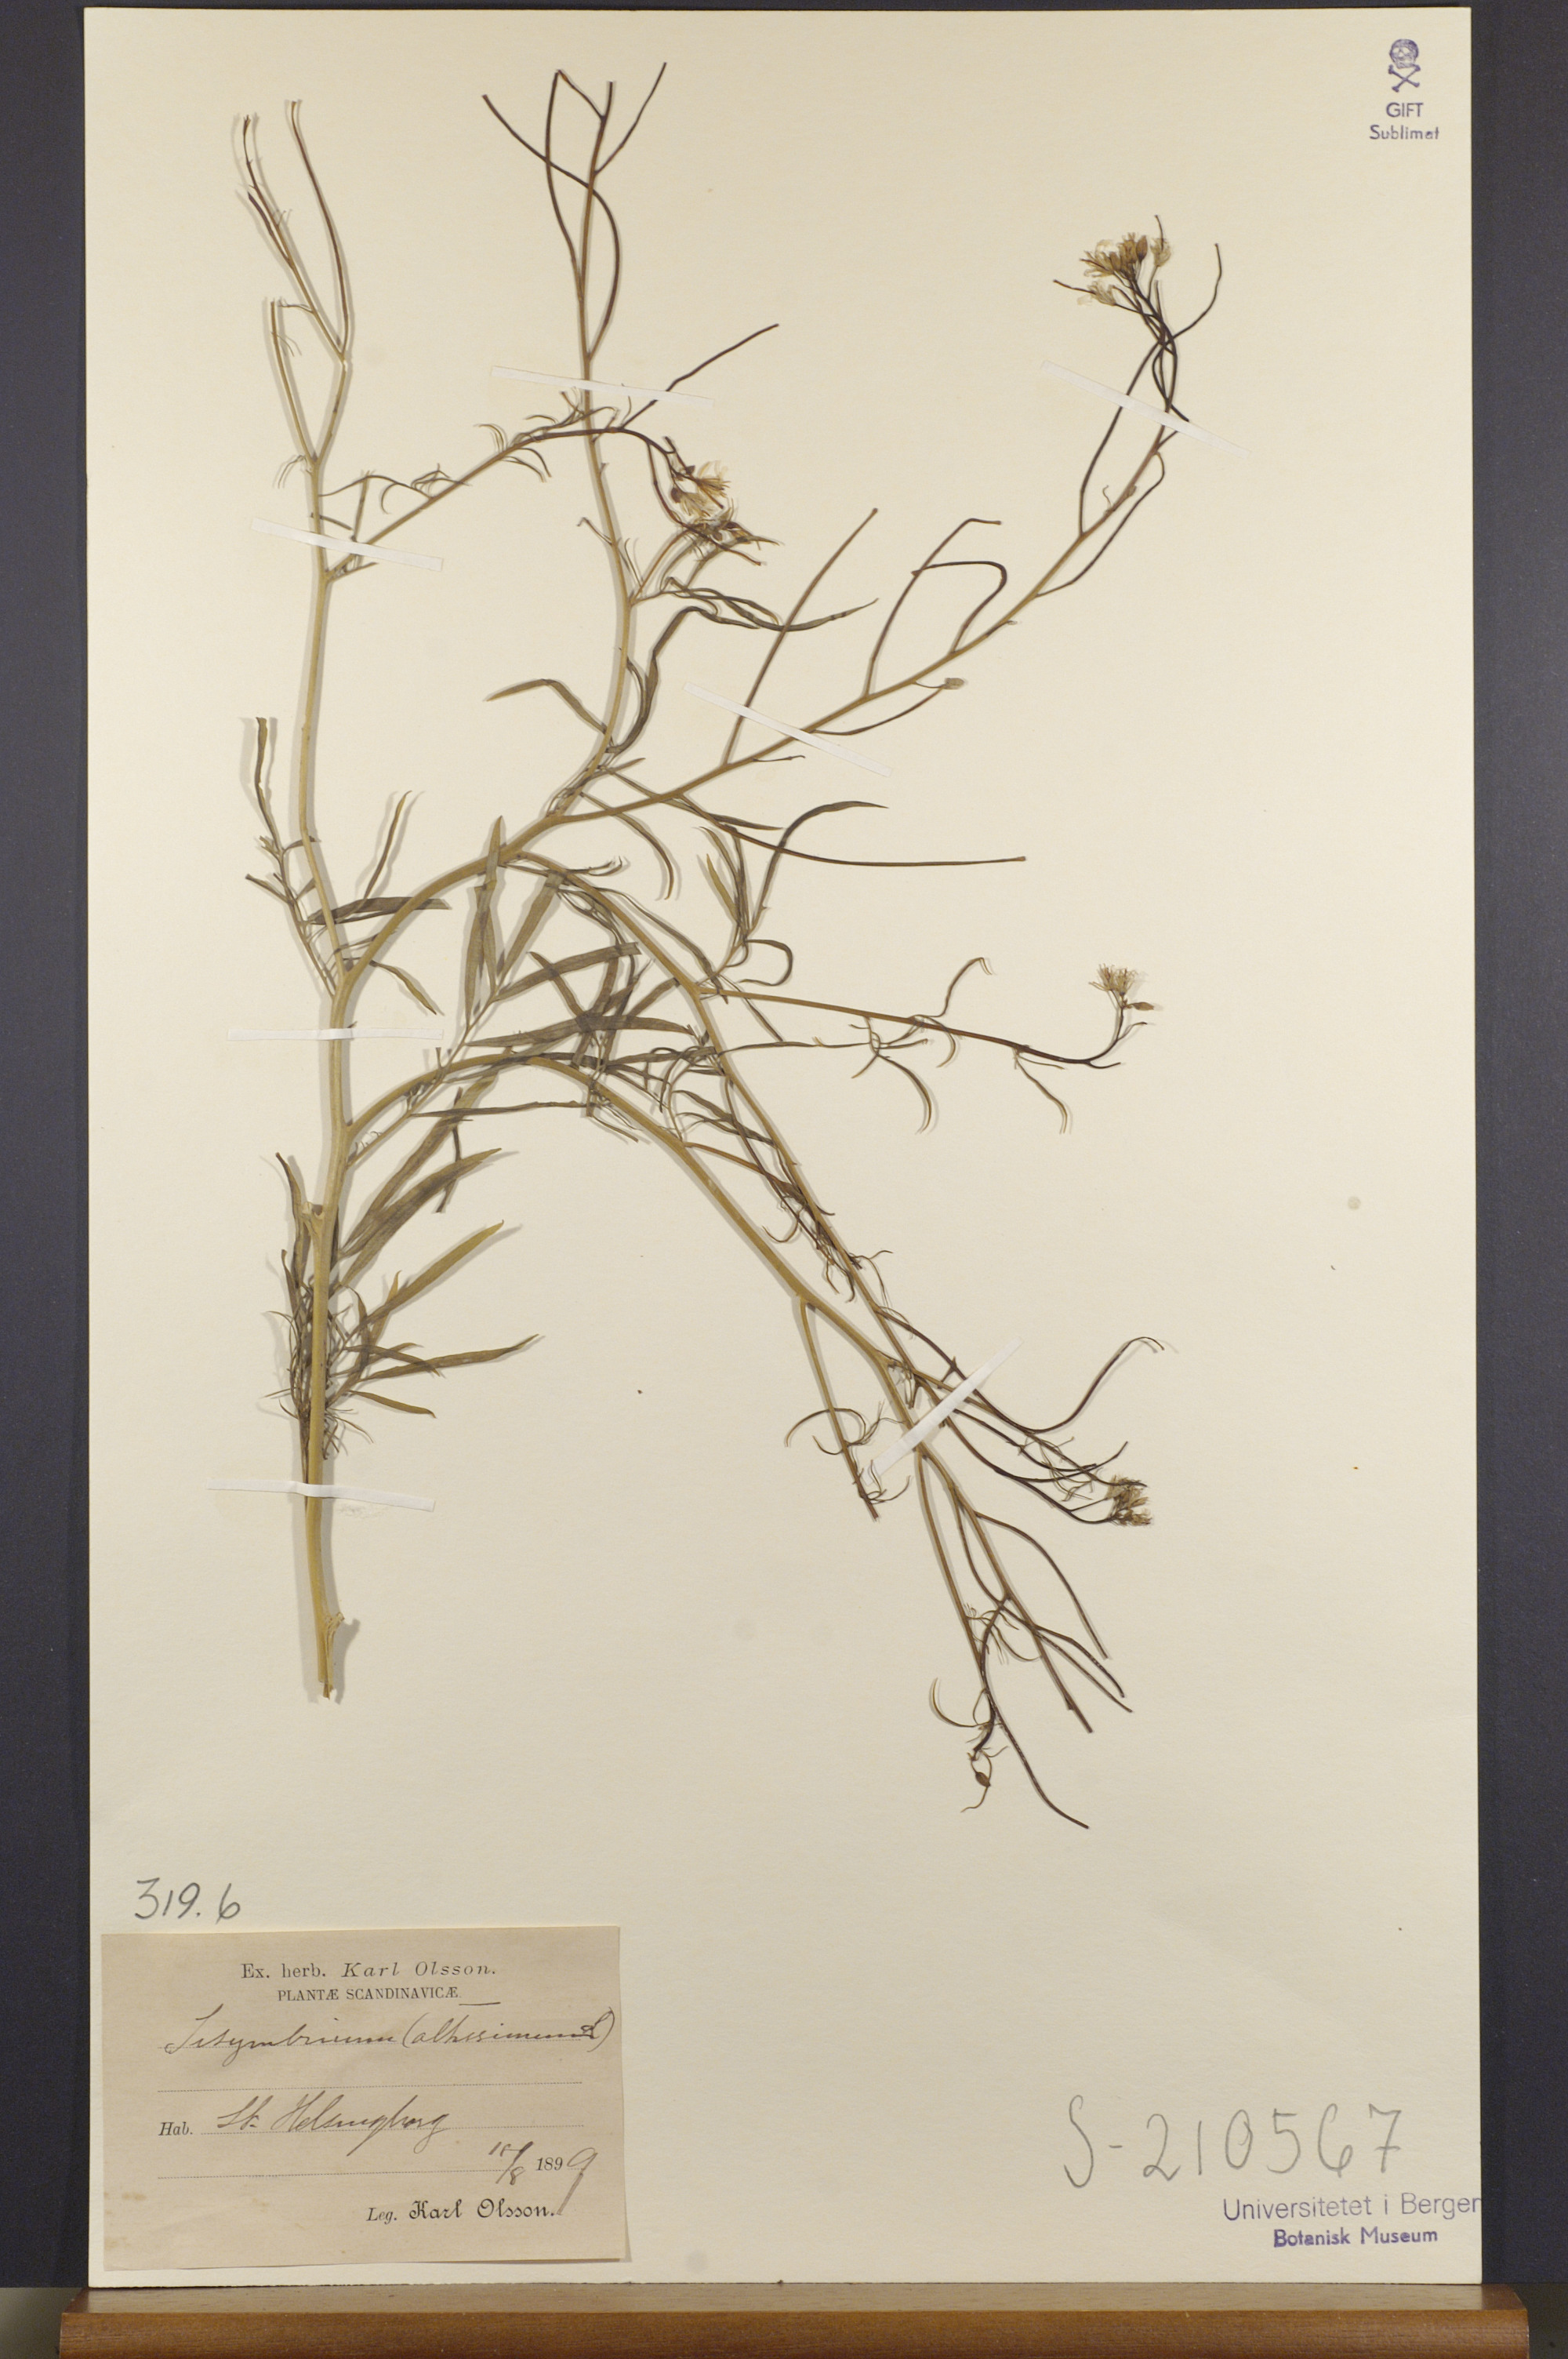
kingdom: Plantae
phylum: Tracheophyta
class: Magnoliopsida
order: Brassicales
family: Brassicaceae
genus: Sisymbrium
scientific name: Sisymbrium altissimum
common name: Tall rocket
